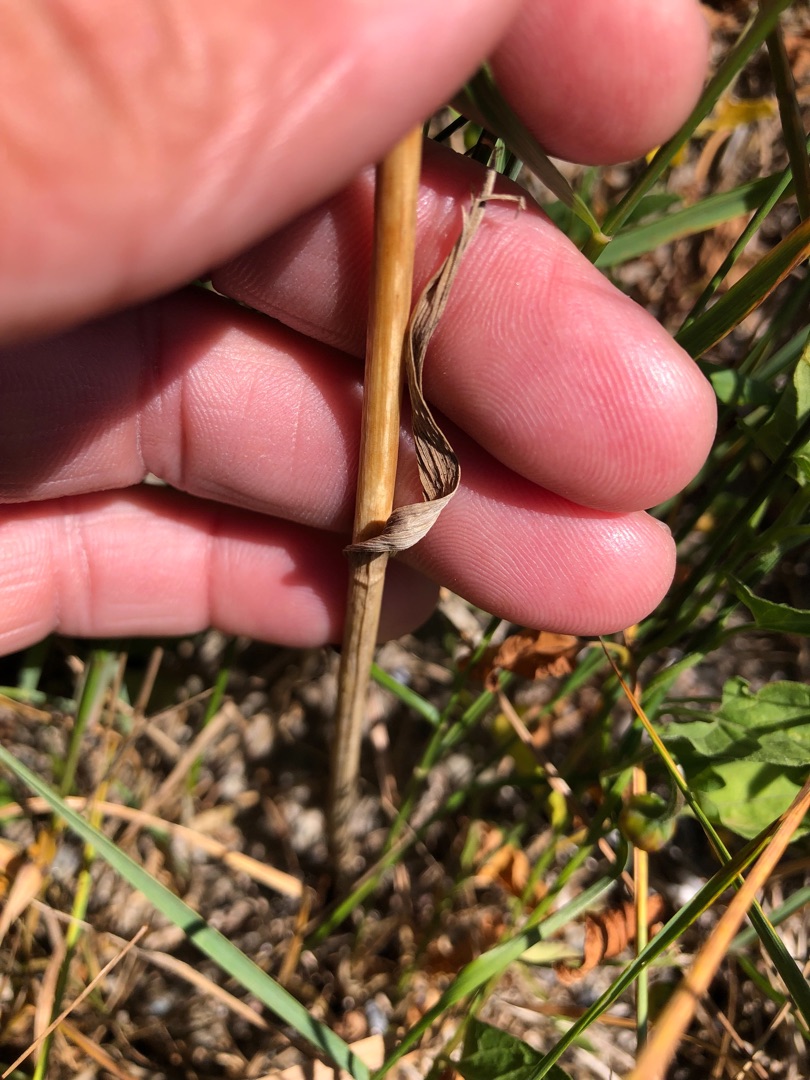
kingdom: Plantae
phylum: Tracheophyta
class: Liliopsida
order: Asparagales
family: Amaryllidaceae
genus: Allium
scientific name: Allium scorodoprasum
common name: Skov-løg
